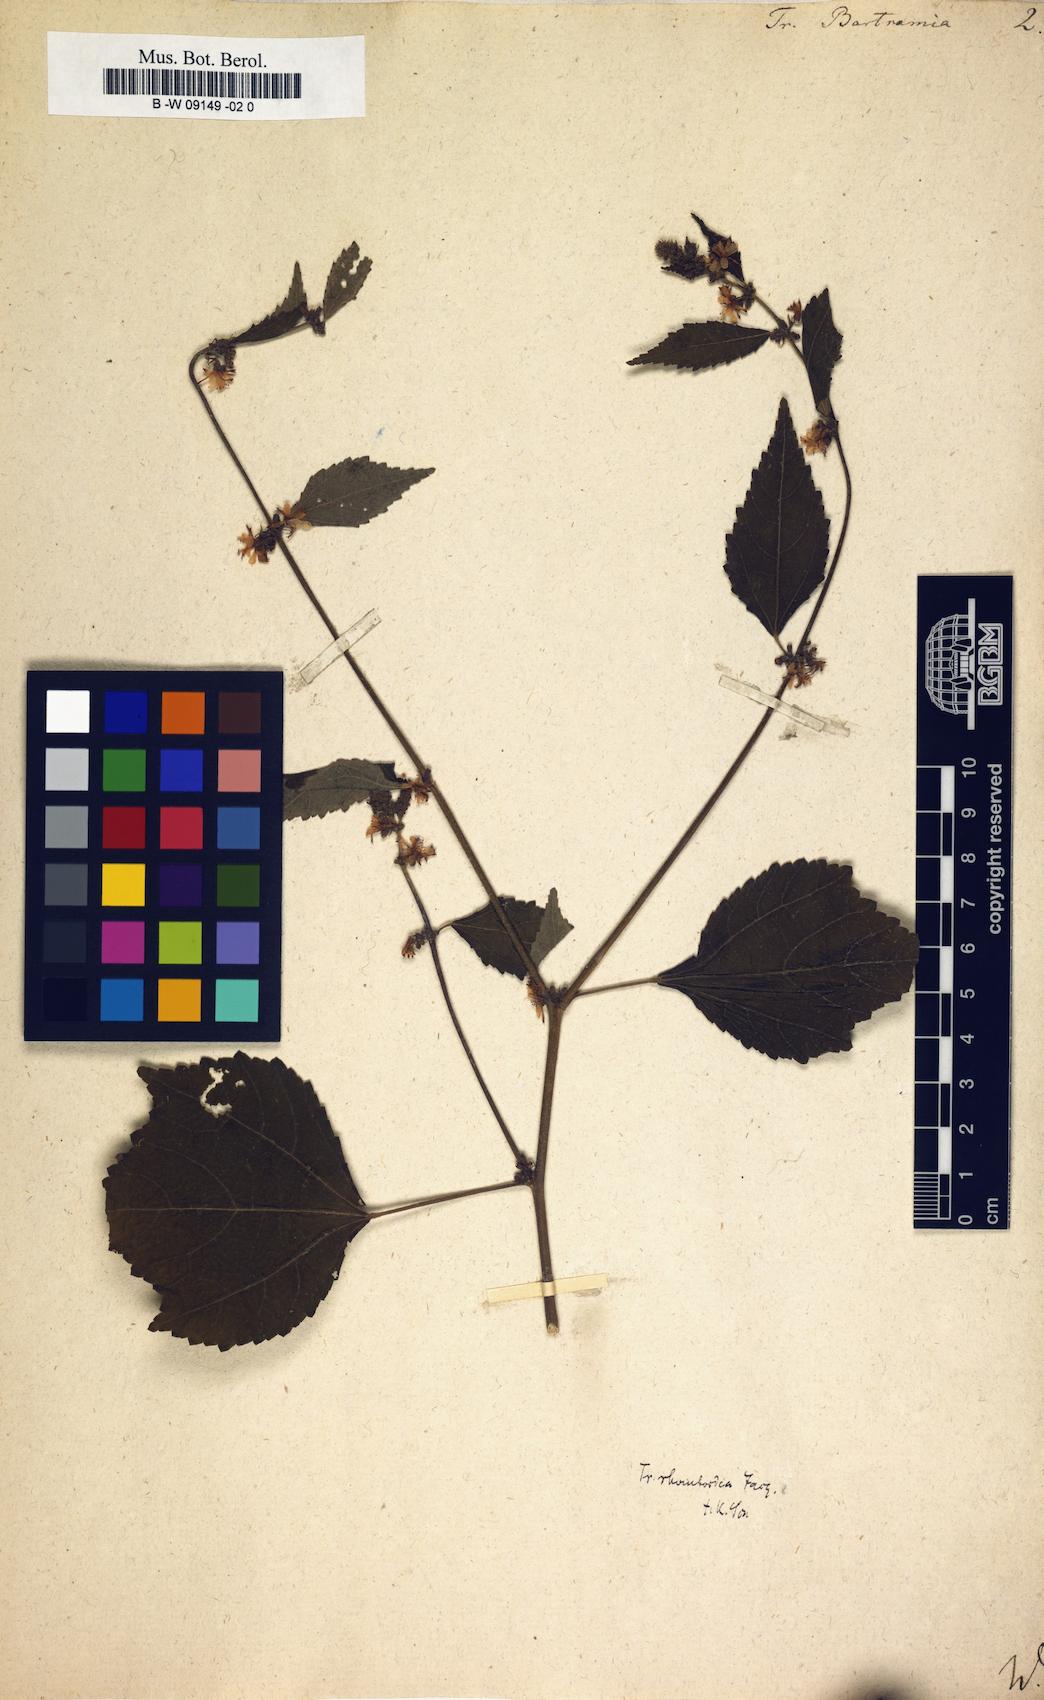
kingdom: Plantae
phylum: Tracheophyta
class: Magnoliopsida
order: Malvales
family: Malvaceae
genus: Triumfetta
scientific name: Triumfetta rhomboidea
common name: Diamond burbark
